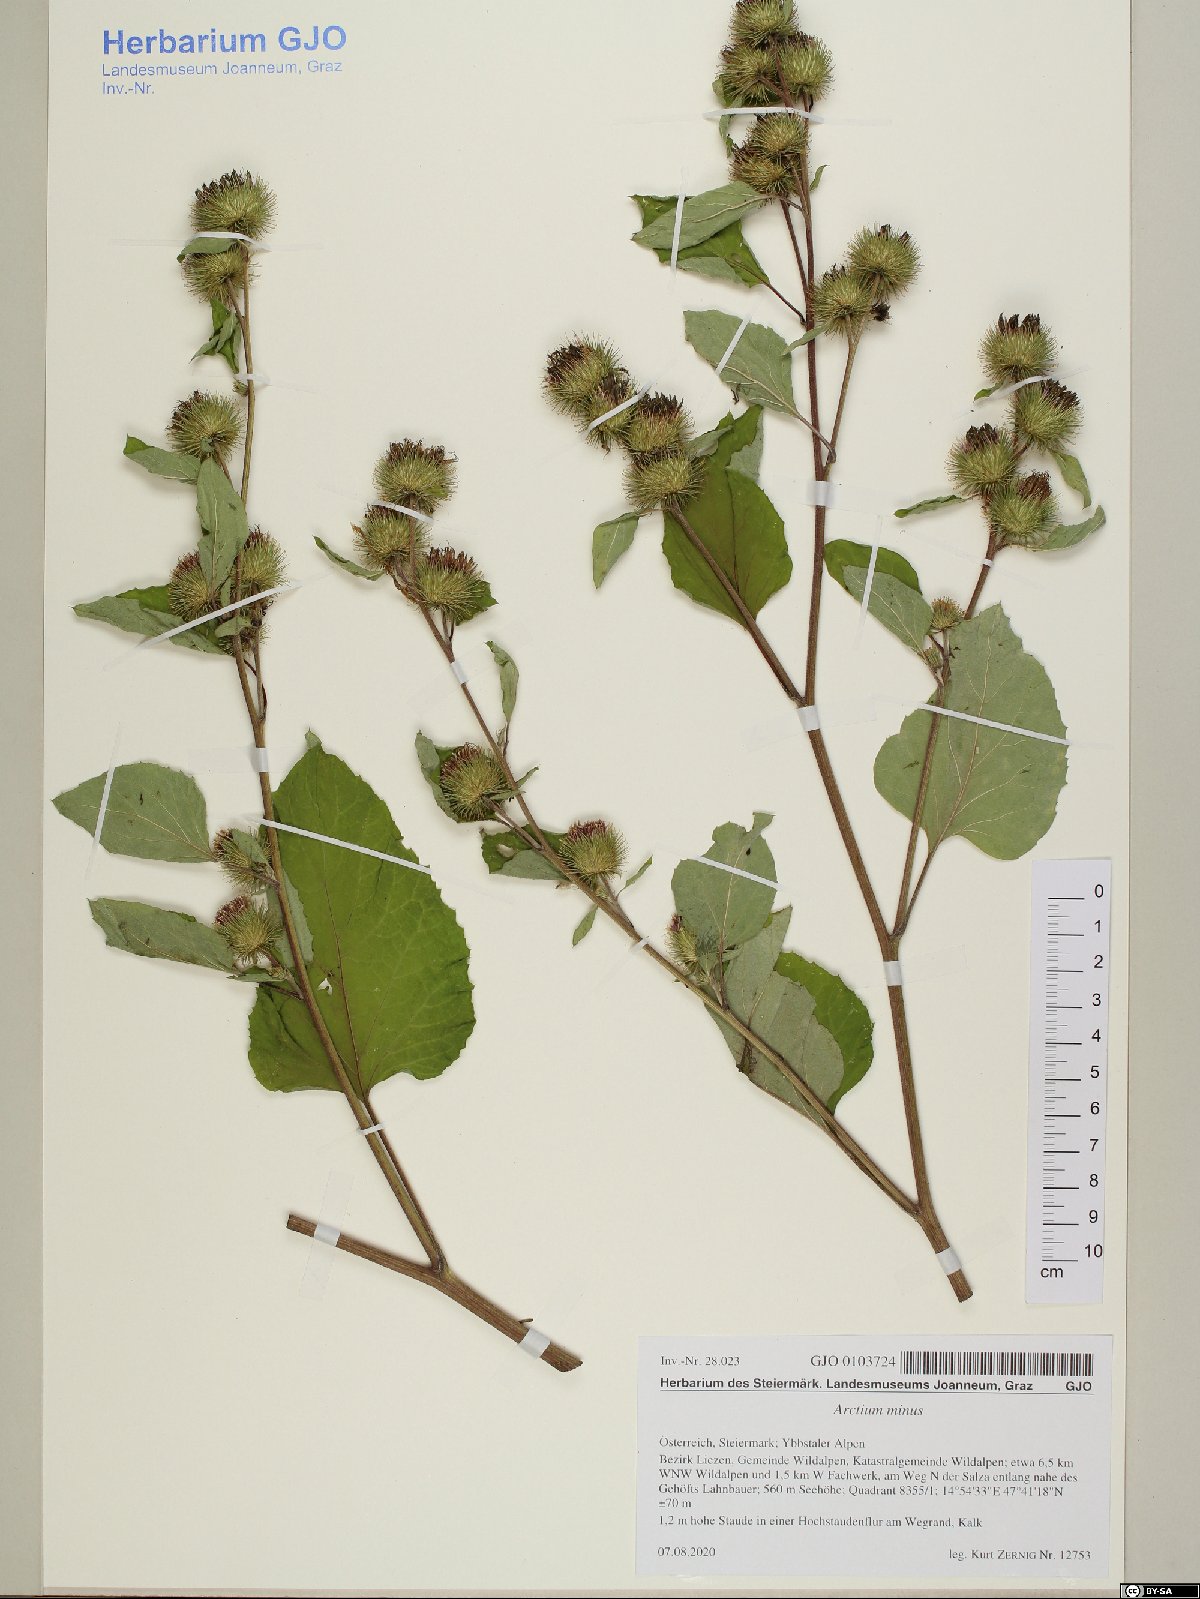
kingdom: Plantae
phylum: Tracheophyta
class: Magnoliopsida
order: Asterales
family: Asteraceae
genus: Arctium
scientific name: Arctium minus
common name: Lesser burdock
